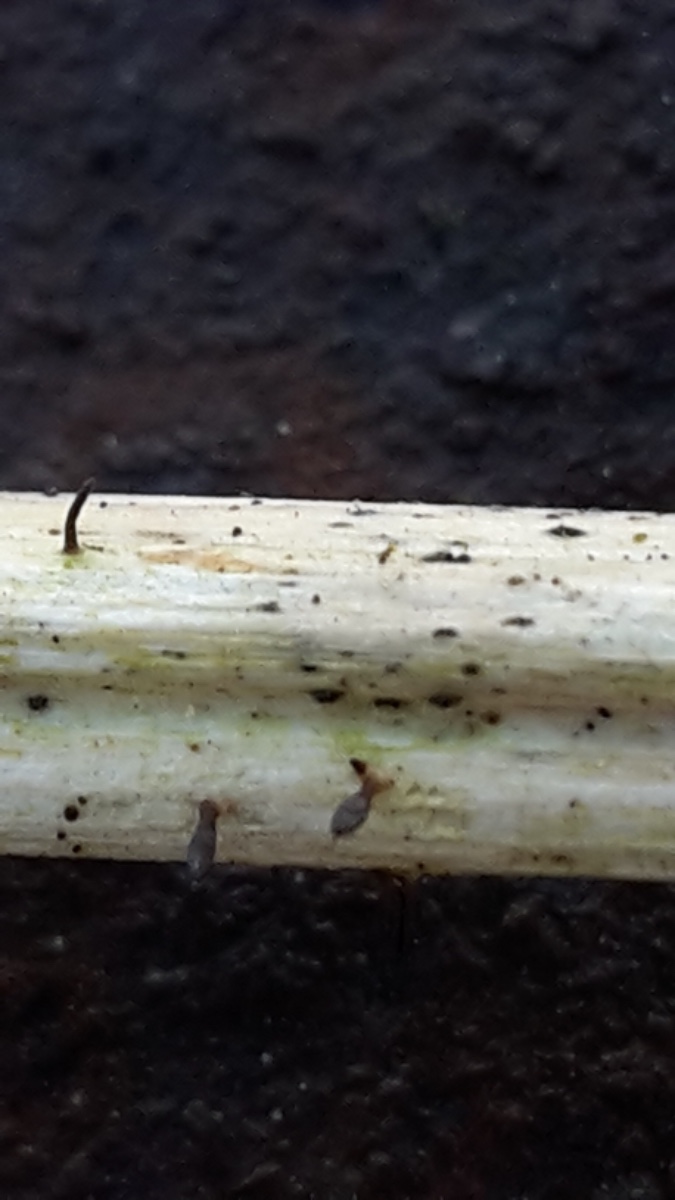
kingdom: Fungi
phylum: Ascomycota
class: Dothideomycetes
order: Acrospermales
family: Acrospermaceae
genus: Acrospermum
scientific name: Acrospermum compressum
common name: nælde-stængeltunge
